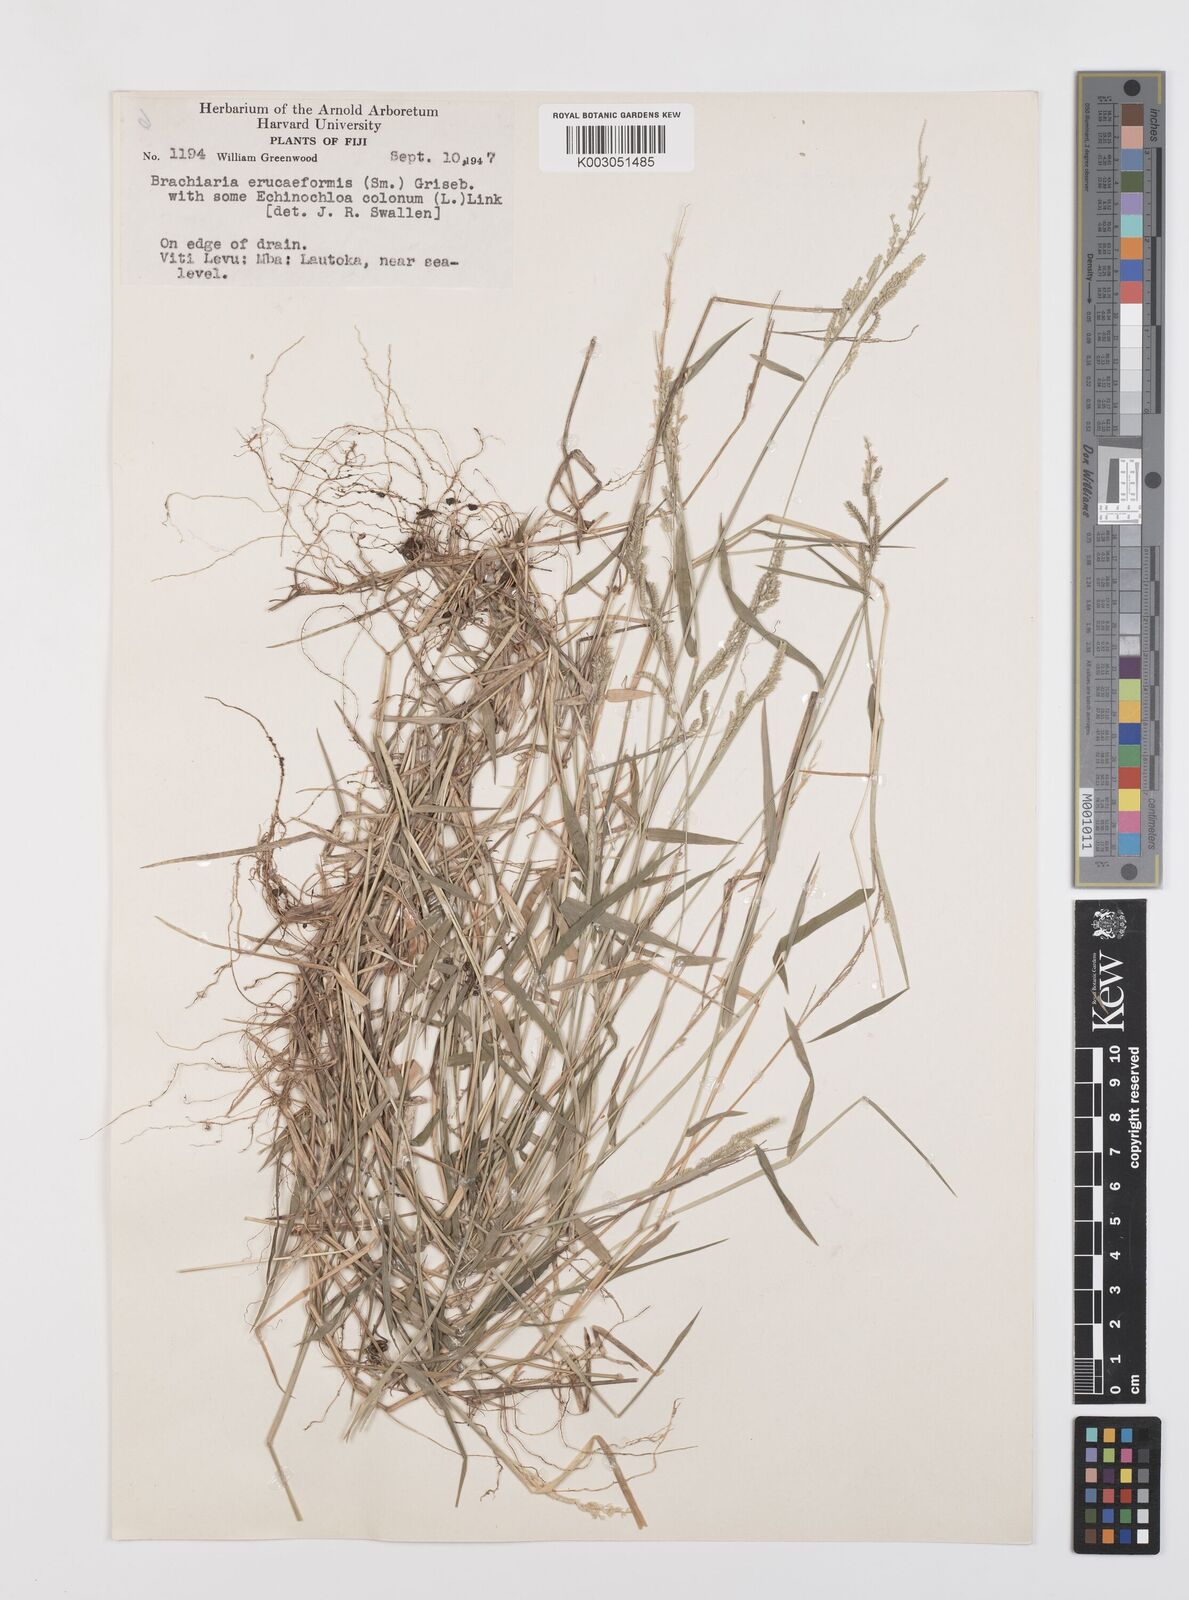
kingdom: Plantae
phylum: Tracheophyta
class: Liliopsida
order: Poales
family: Poaceae
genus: Moorochloa
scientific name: Moorochloa eruciformis
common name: Sweet signalgrass
